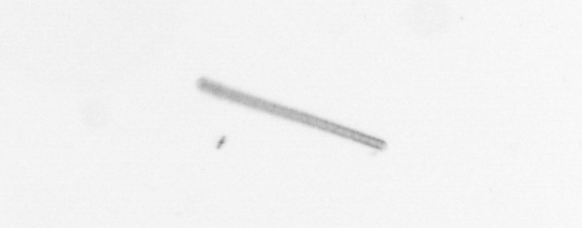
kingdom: Chromista
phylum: Ochrophyta
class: Bacillariophyceae
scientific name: Bacillariophyceae
